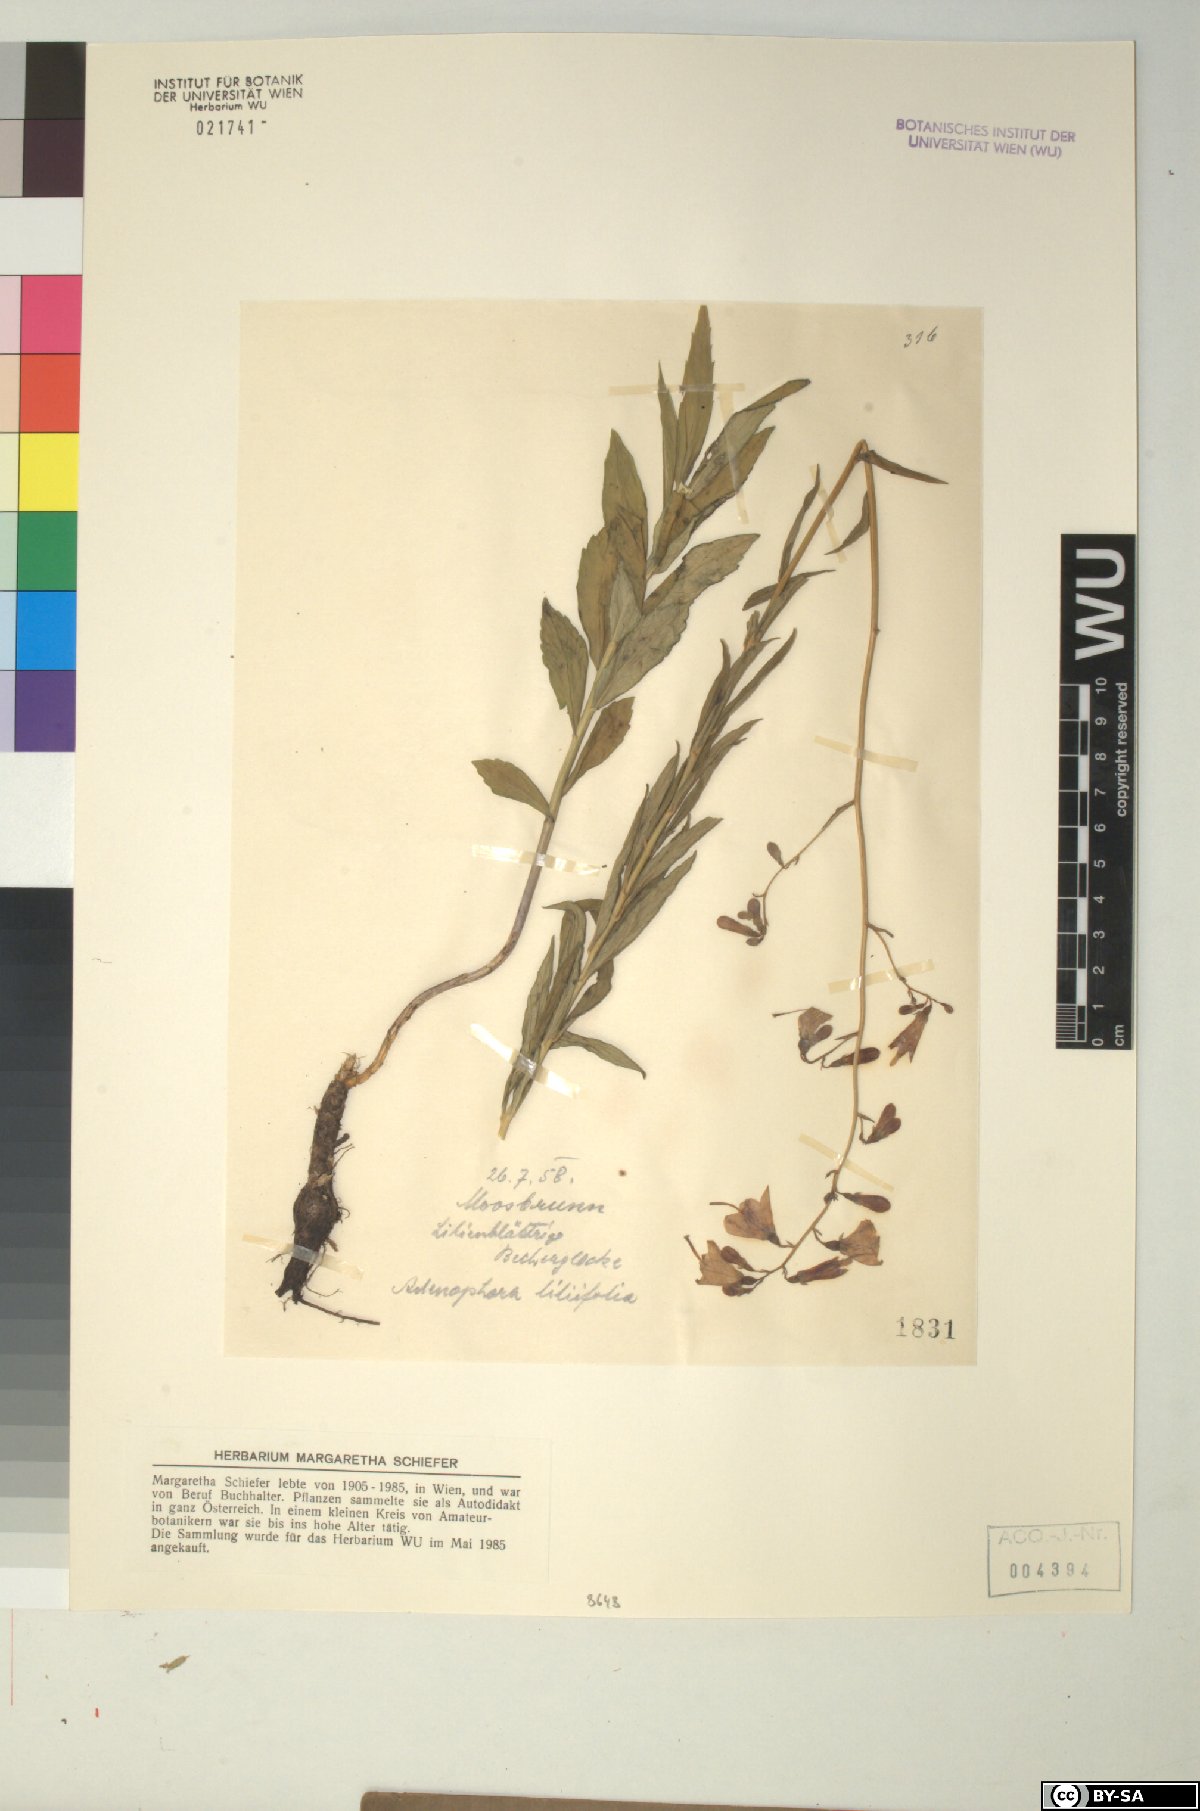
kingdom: Plantae
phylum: Tracheophyta
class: Magnoliopsida
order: Asterales
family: Campanulaceae
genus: Adenophora
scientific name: Adenophora liliifolia
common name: Lilyleaf ladybells
